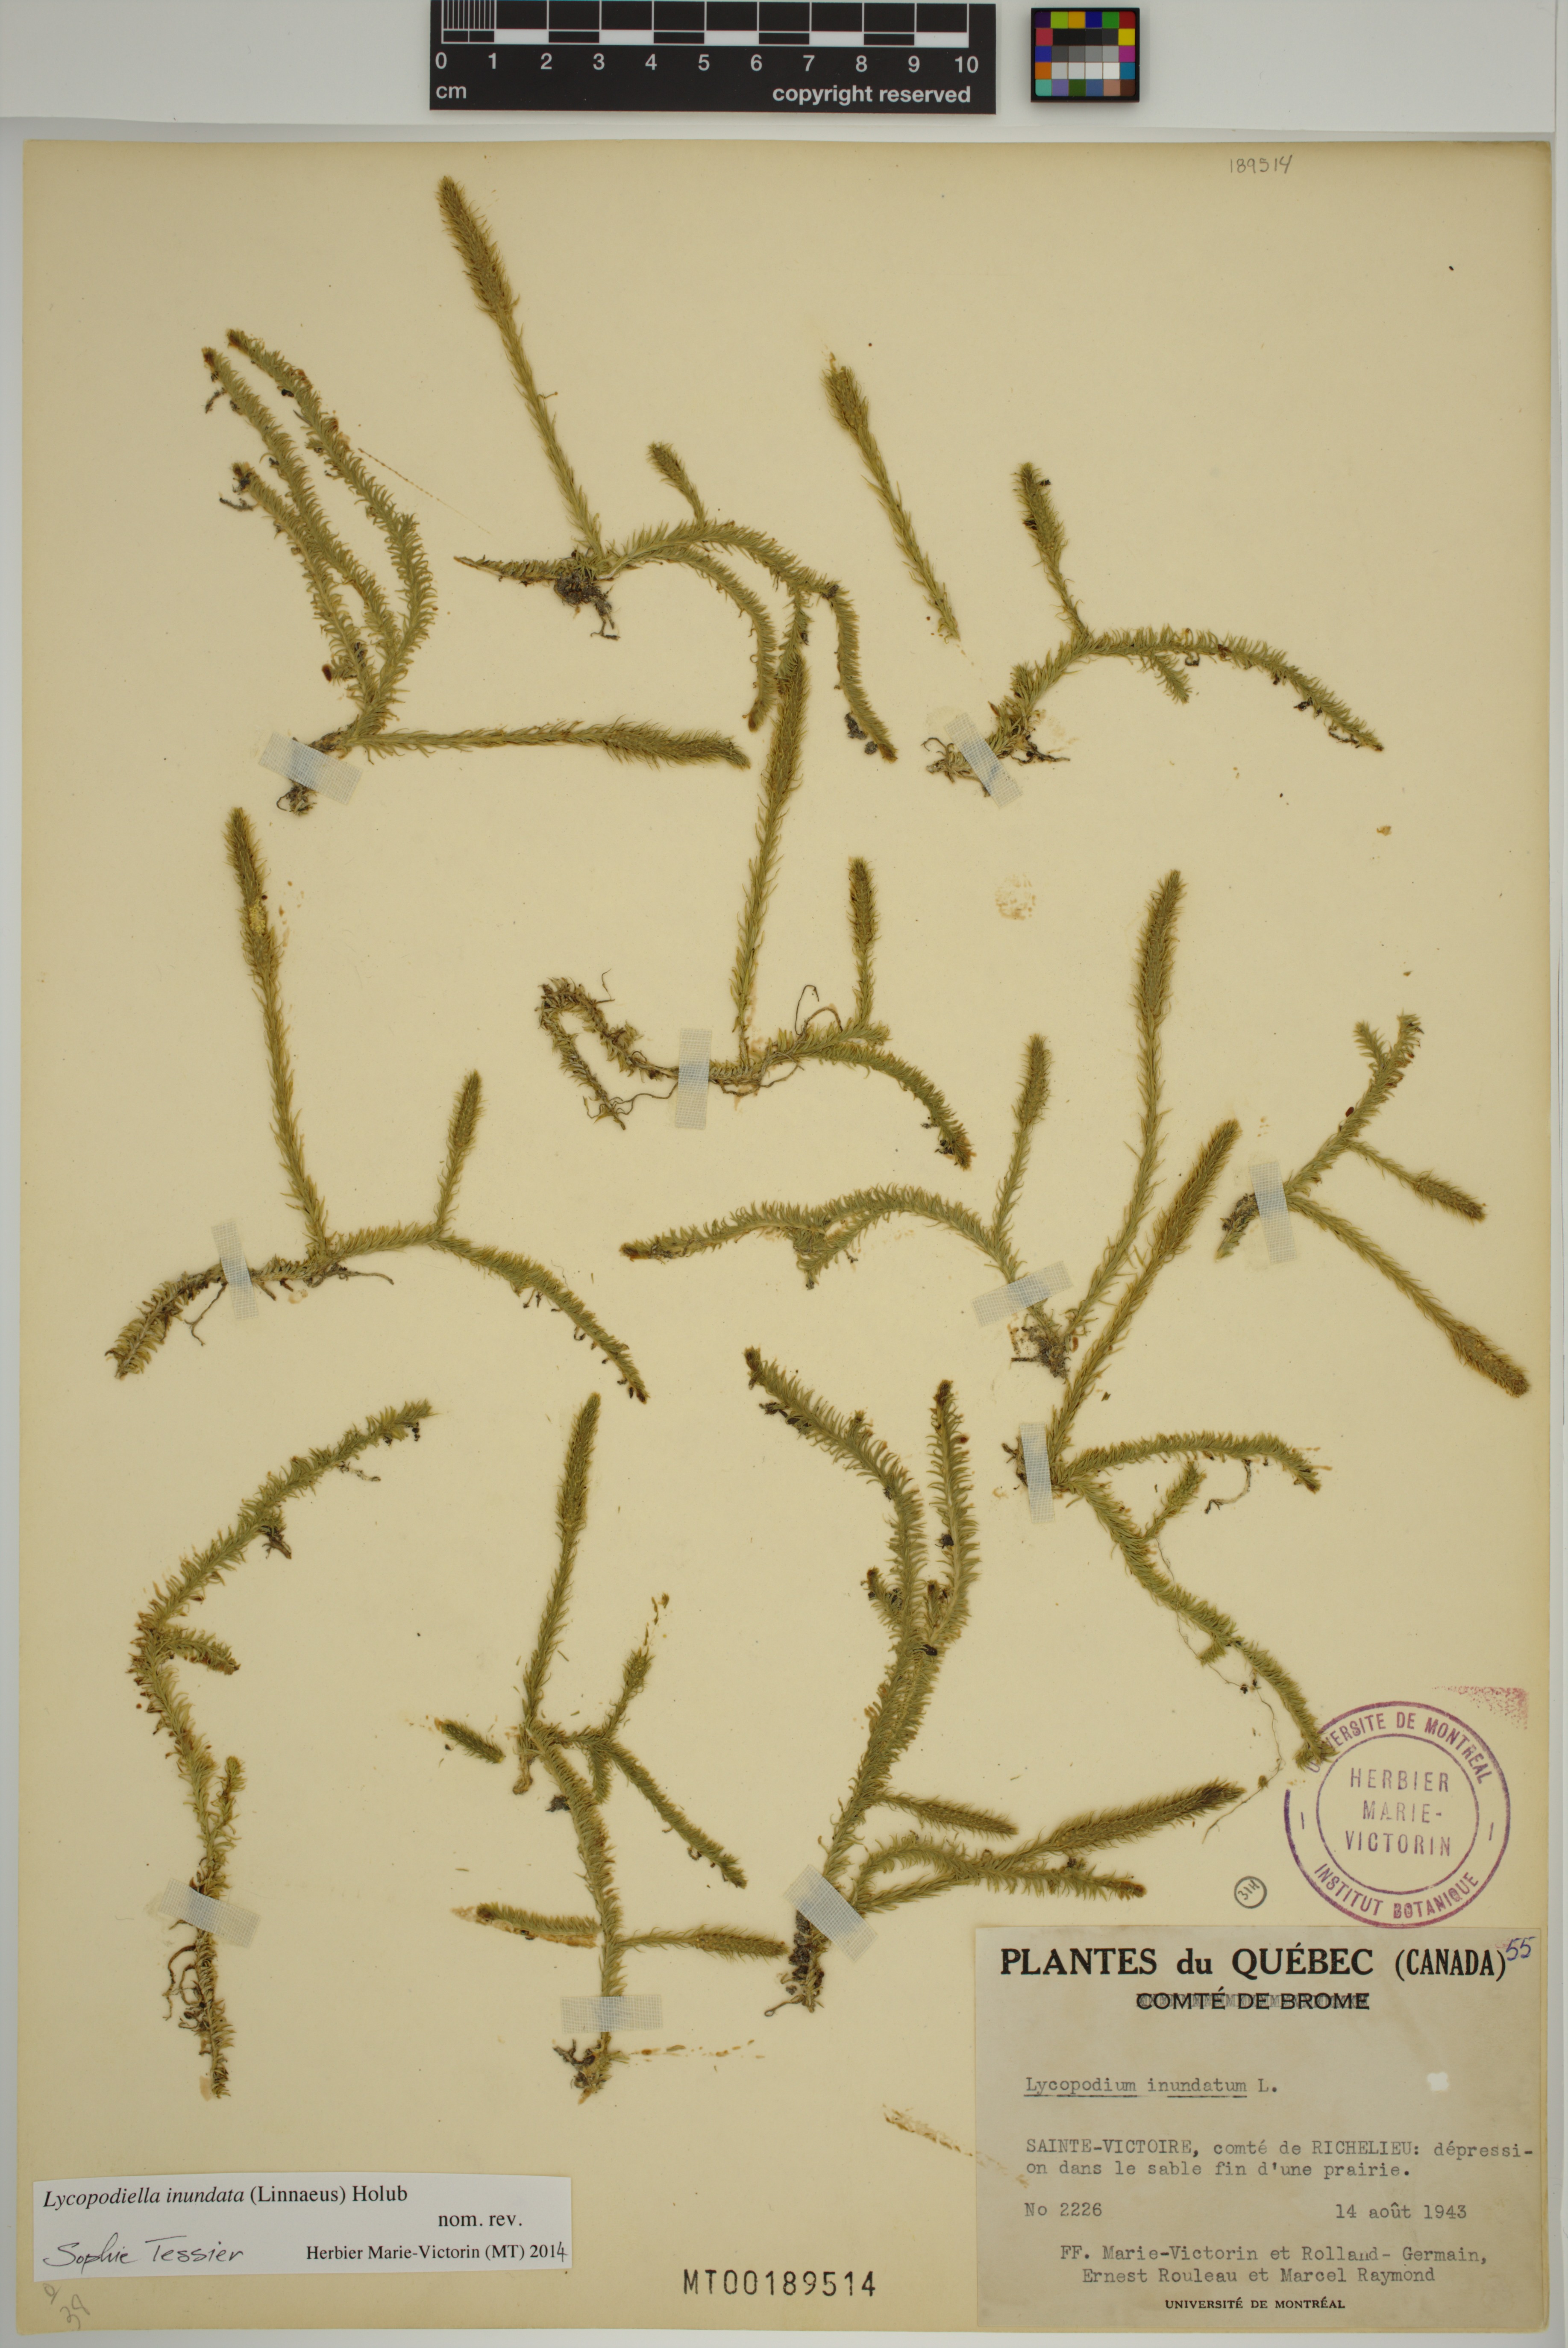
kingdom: Plantae
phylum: Tracheophyta
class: Lycopodiopsida
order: Lycopodiales
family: Lycopodiaceae
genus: Lycopodiella
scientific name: Lycopodiella inundata
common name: Marsh clubmoss
